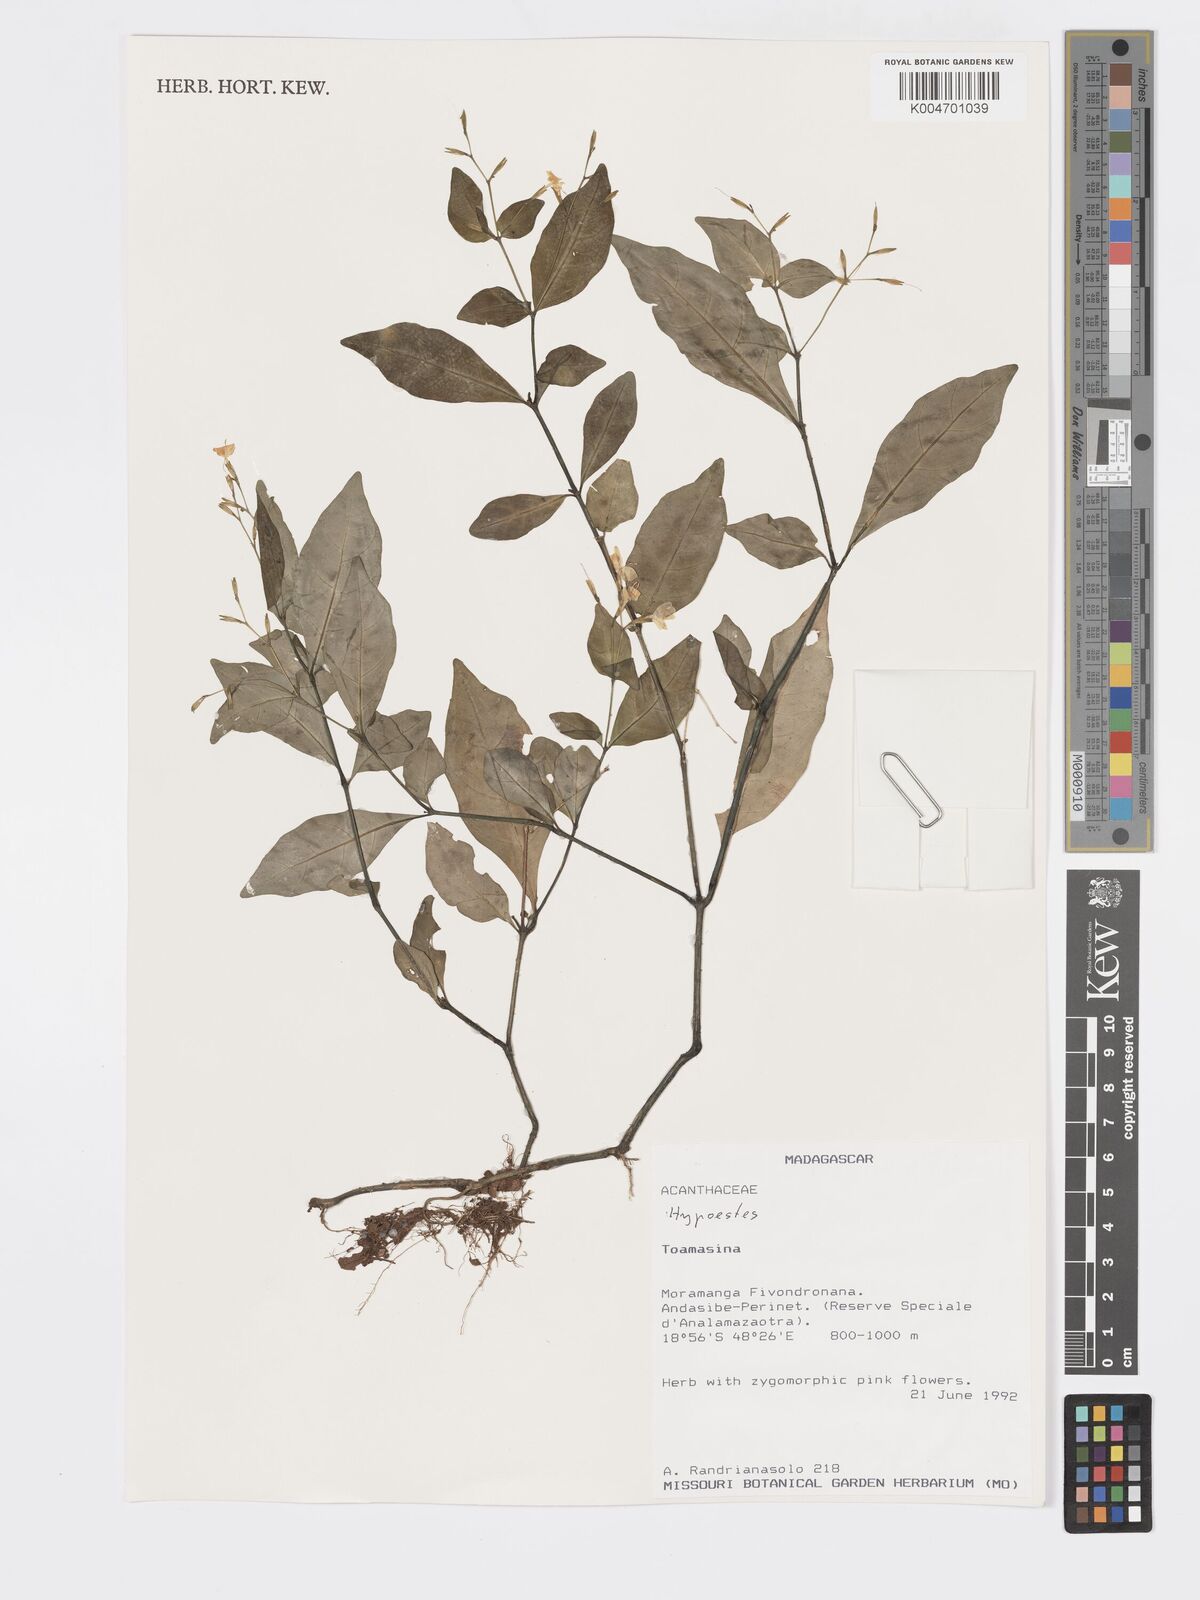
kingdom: Plantae
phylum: Tracheophyta
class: Magnoliopsida
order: Lamiales
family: Acanthaceae
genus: Hypoestes
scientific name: Hypoestes
